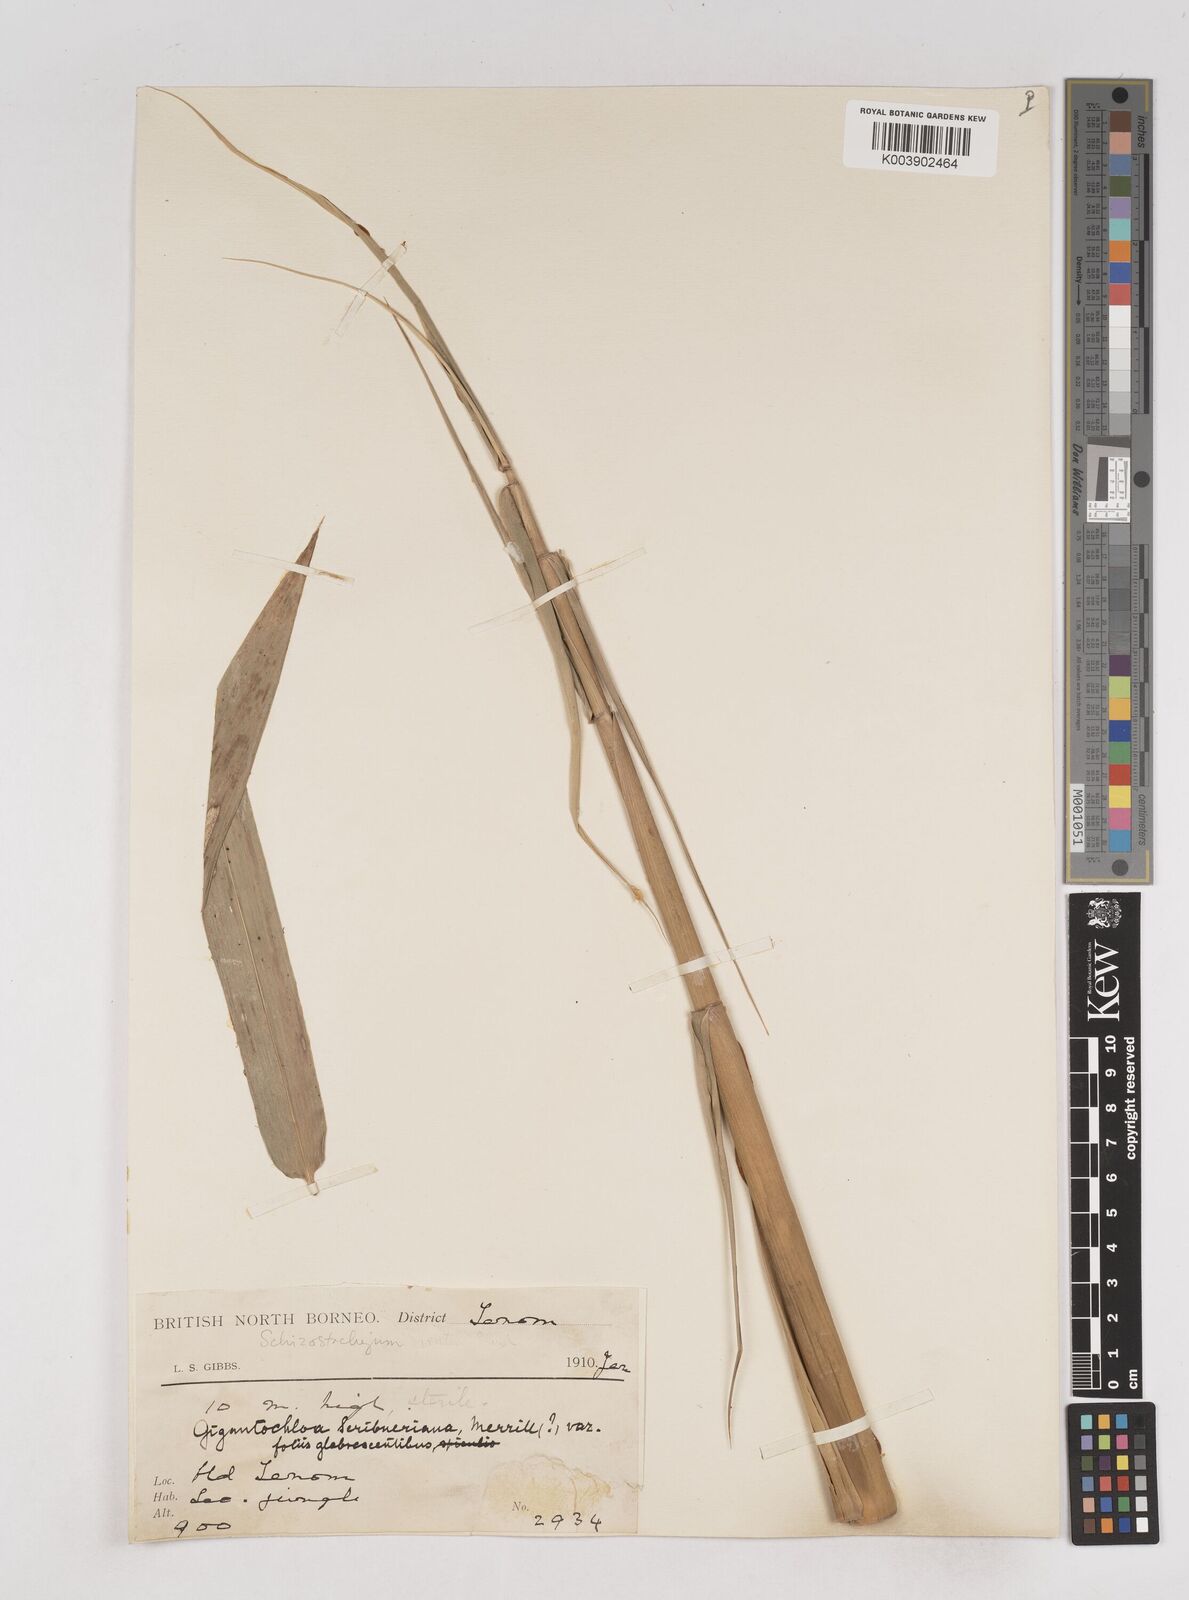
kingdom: Plantae
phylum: Tracheophyta
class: Liliopsida
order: Poales
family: Poaceae
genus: Schizostachyum
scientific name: Schizostachyum
